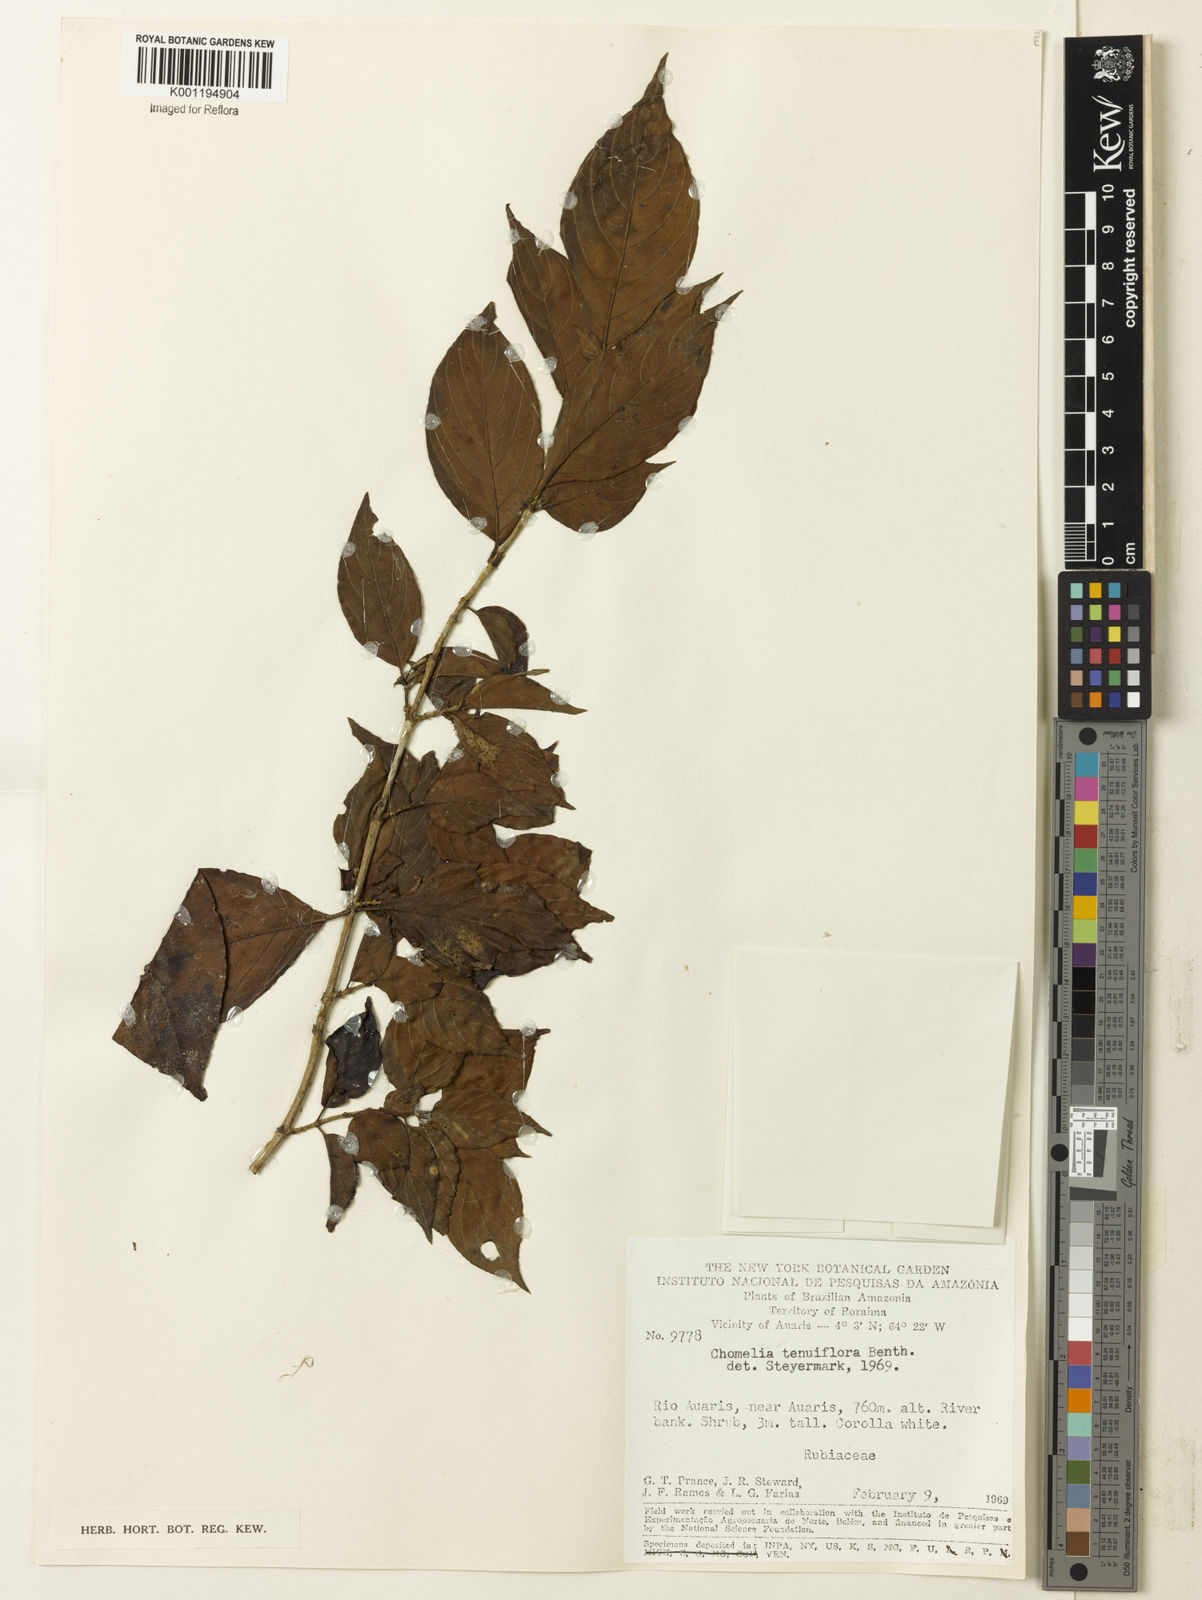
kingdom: Plantae
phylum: Tracheophyta
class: Magnoliopsida
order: Gentianales
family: Rubiaceae
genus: Chomelia
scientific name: Chomelia tenuiflora
